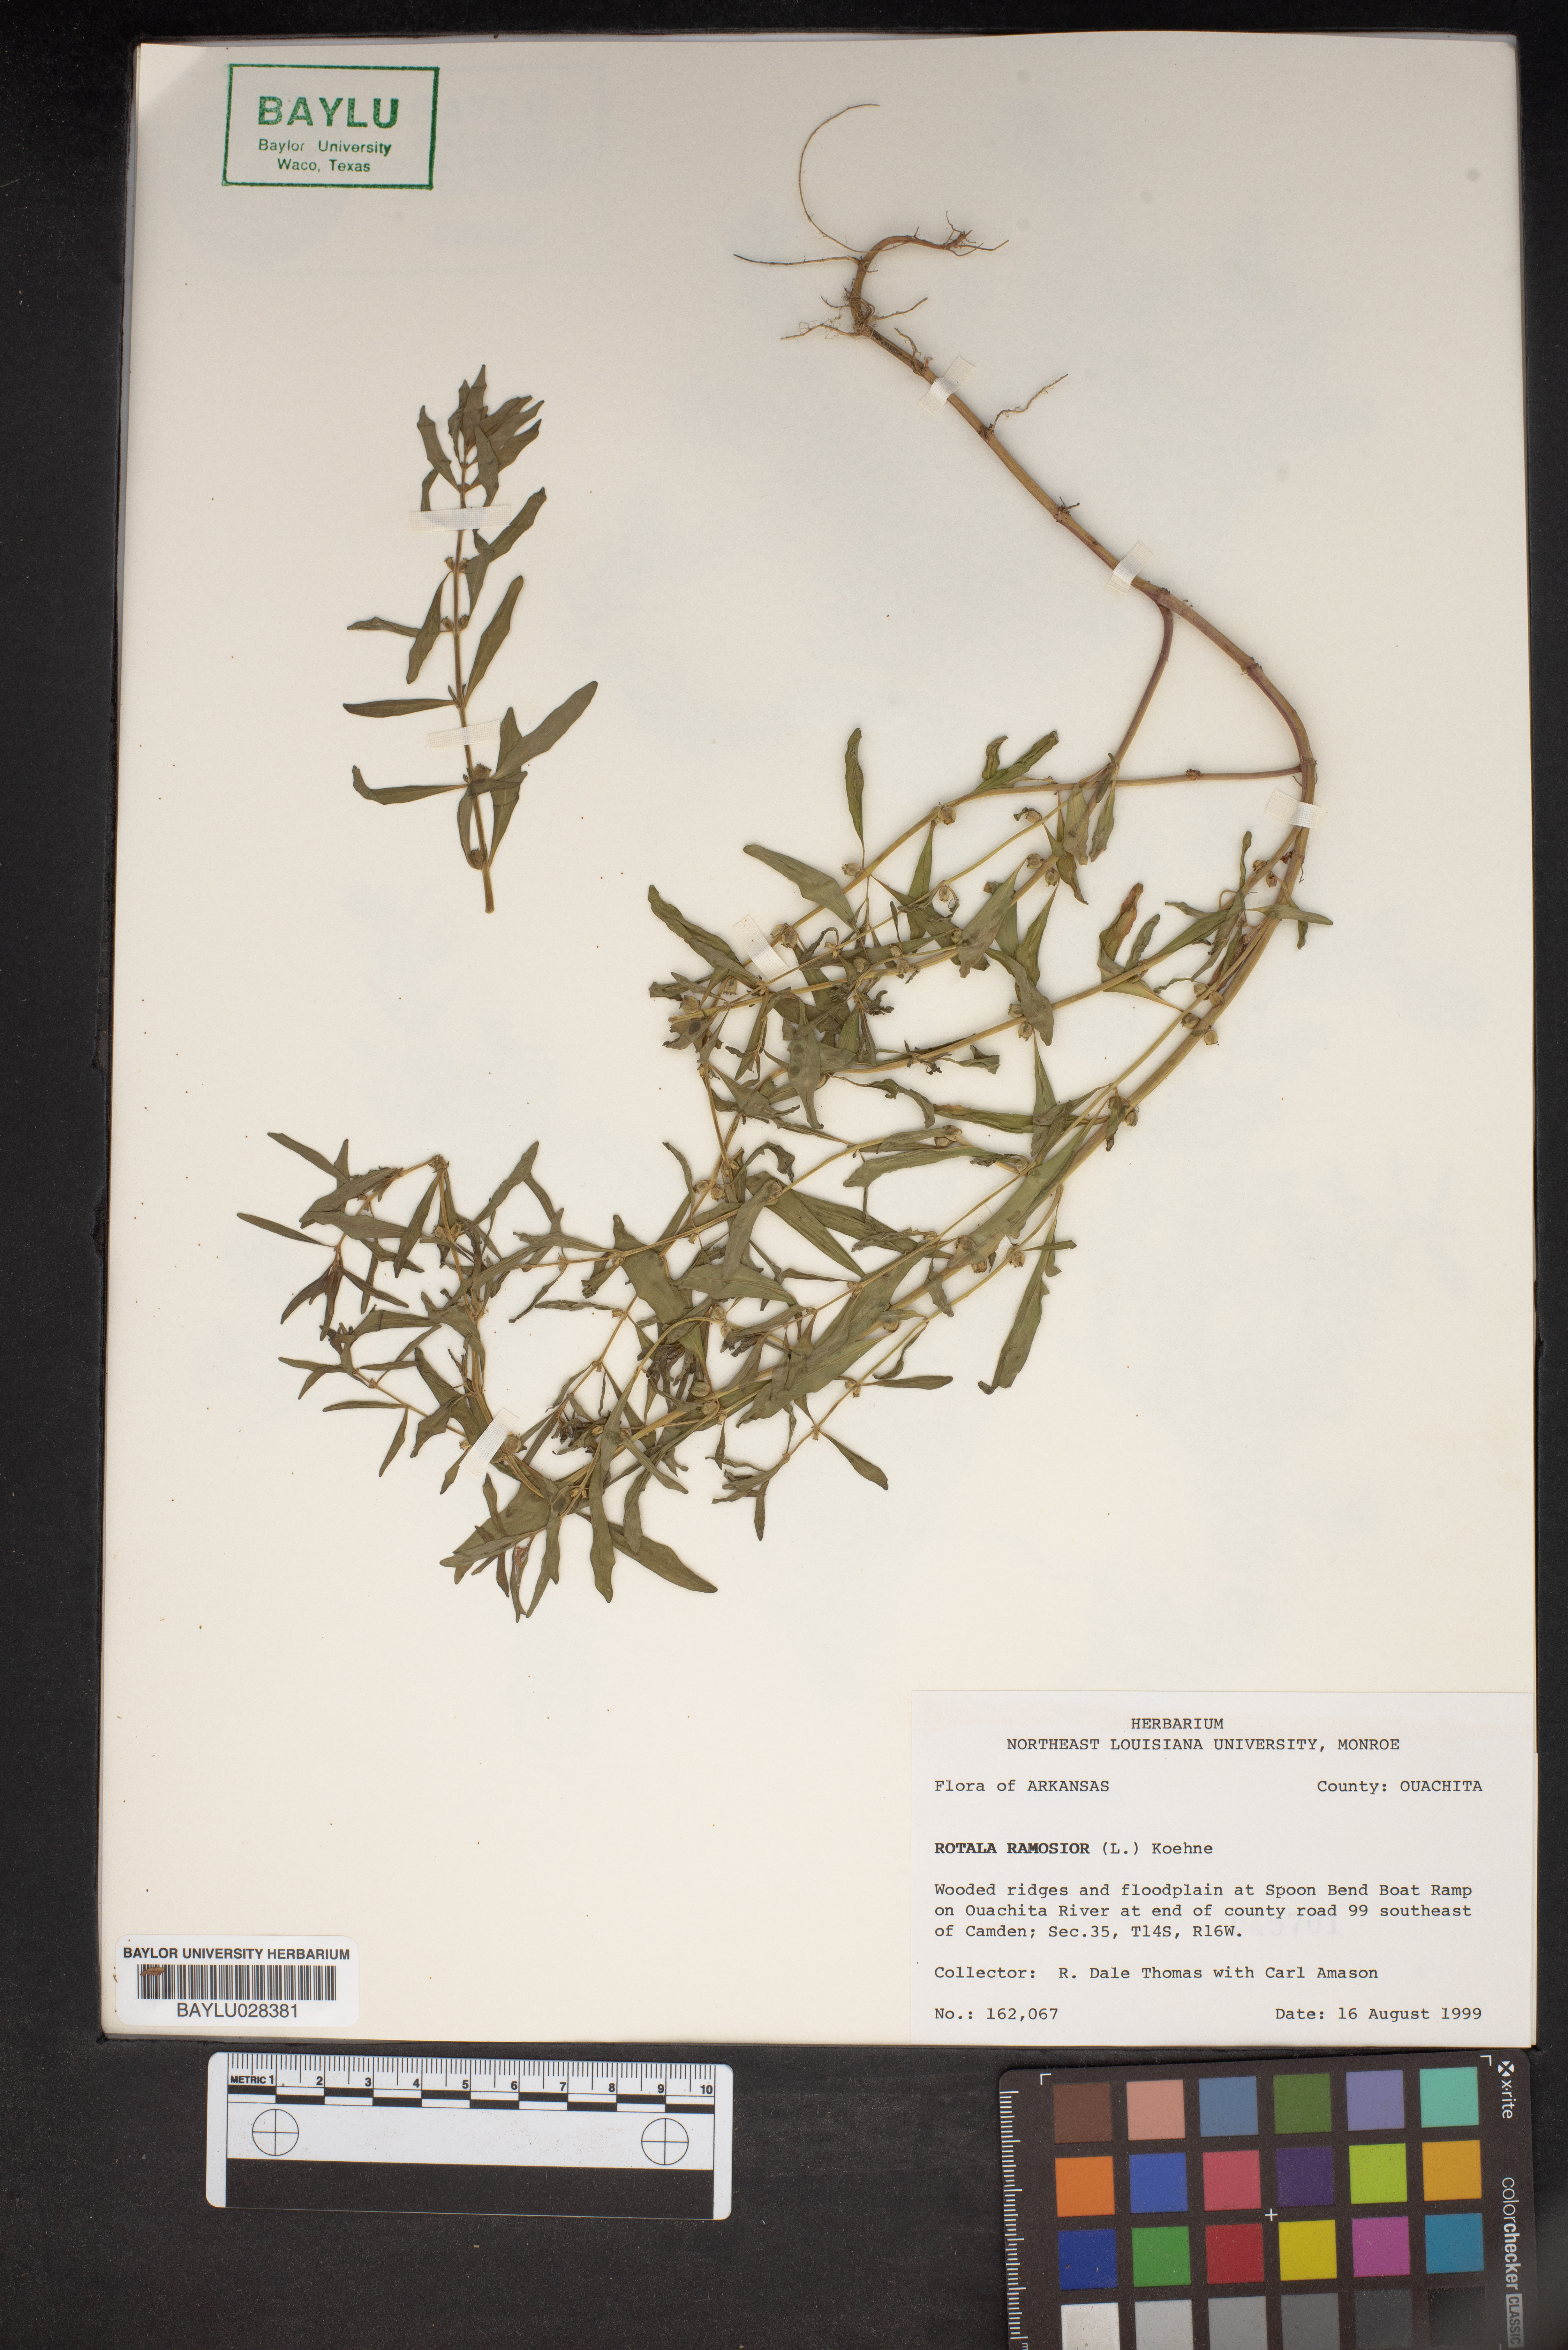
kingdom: Plantae
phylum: Tracheophyta
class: Magnoliopsida
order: Myrtales
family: Lythraceae
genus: Rotala
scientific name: Rotala ramosior
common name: Lowland rotala
